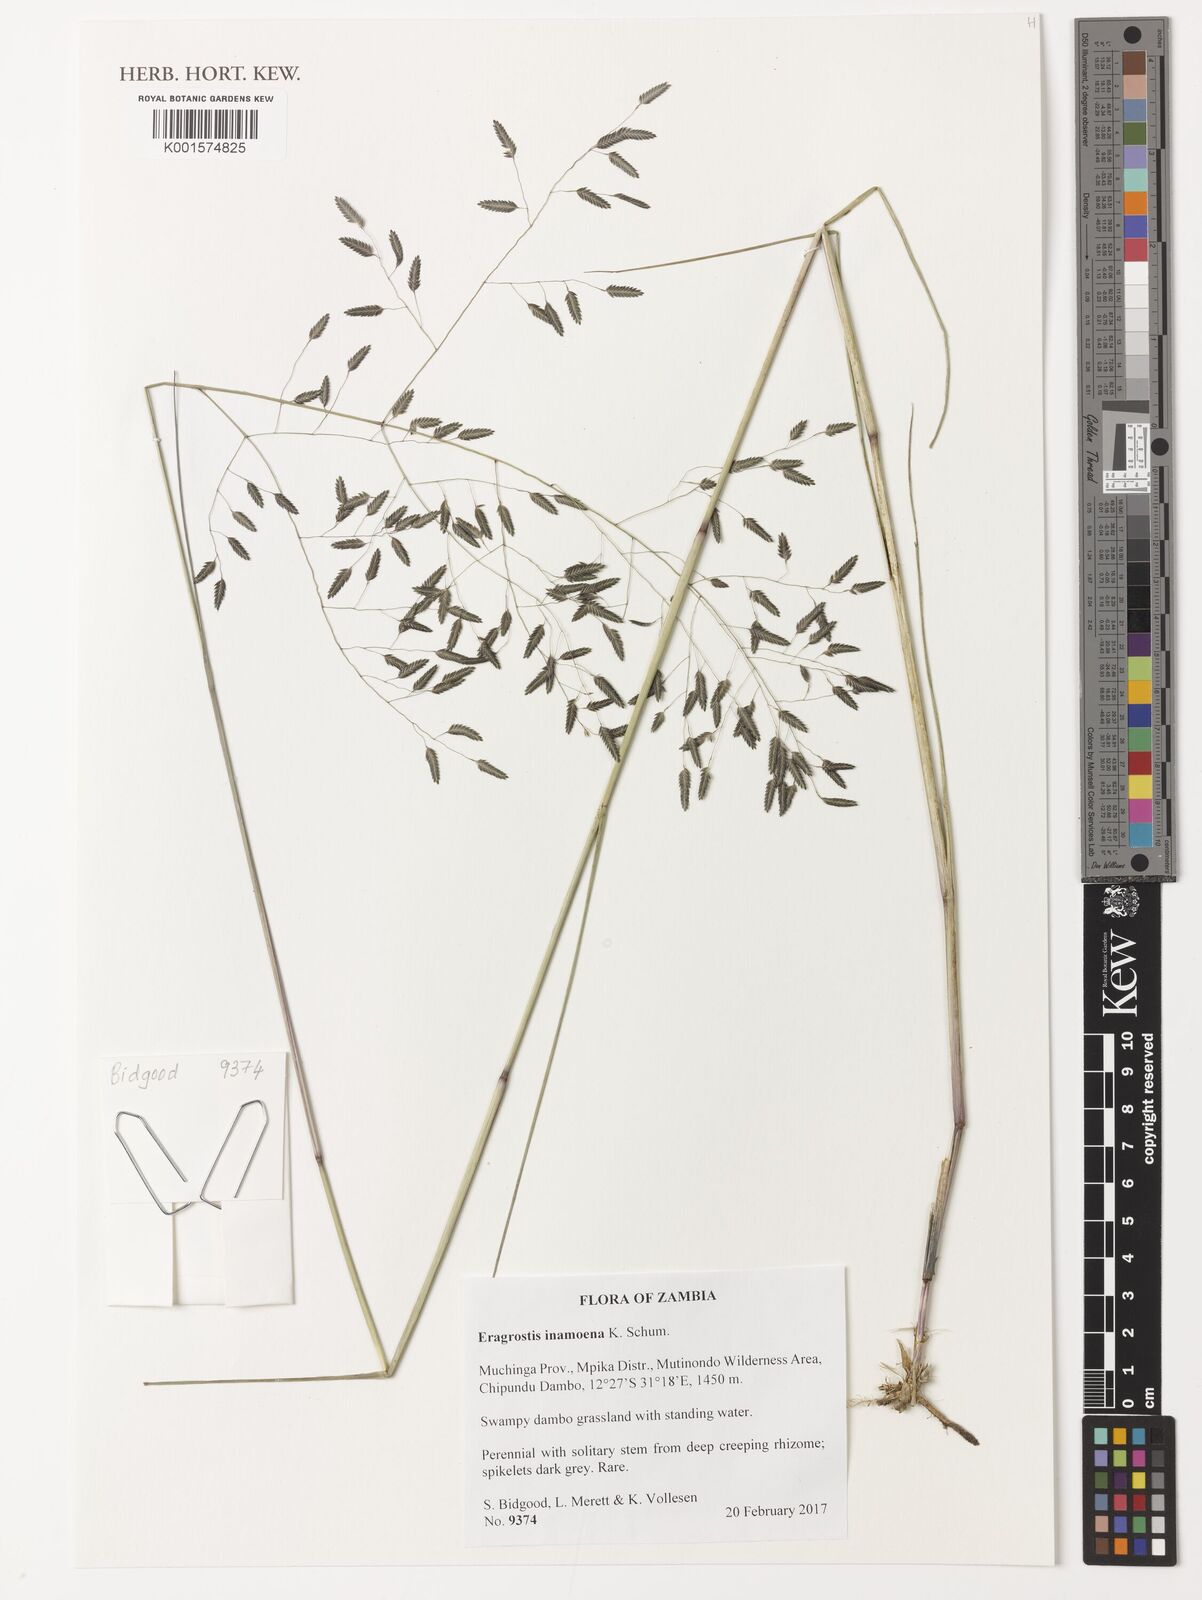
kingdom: Plantae
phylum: Tracheophyta
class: Liliopsida
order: Poales
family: Poaceae
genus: Eragrostis
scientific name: Eragrostis inamoena
